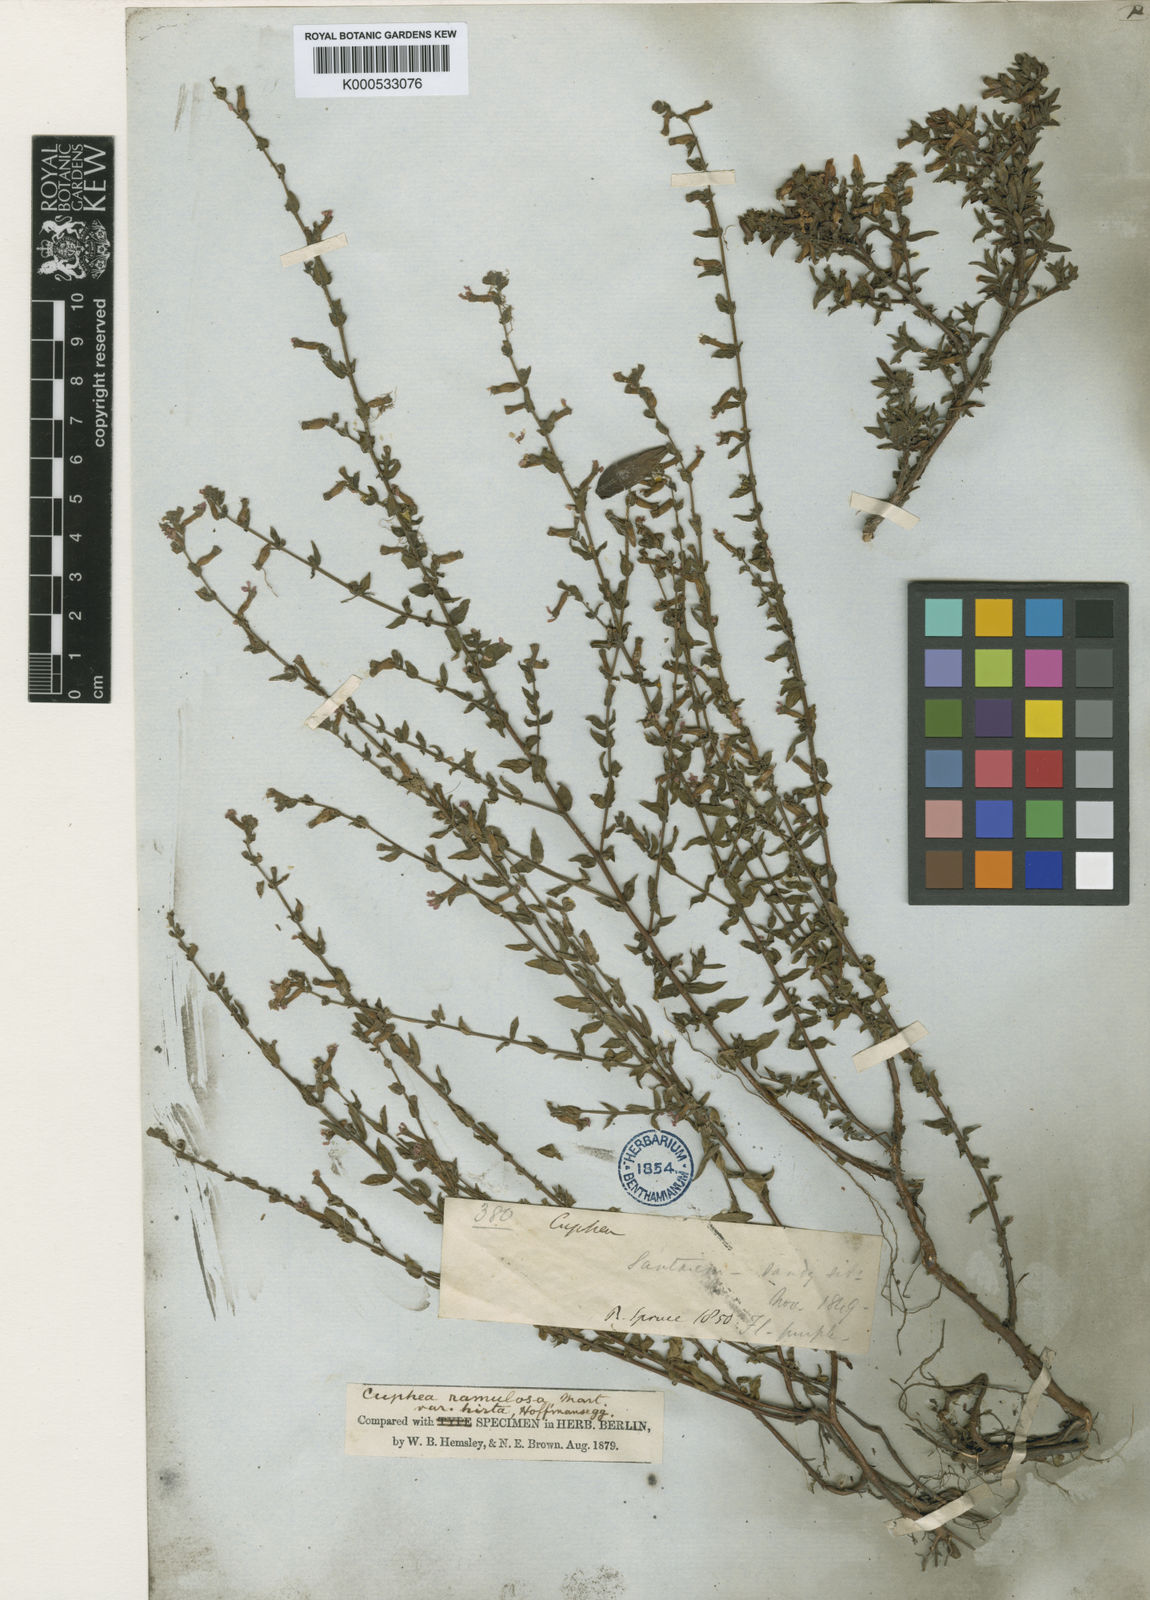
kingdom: Plantae
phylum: Tracheophyta
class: Magnoliopsida
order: Myrtales
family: Lythraceae
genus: Cuphea
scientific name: Cuphea antisyphilitica
